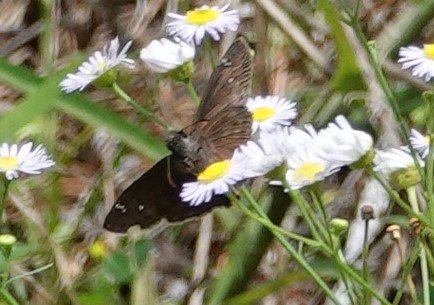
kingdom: Animalia
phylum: Arthropoda
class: Insecta
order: Lepidoptera
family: Hesperiidae
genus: Gesta
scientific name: Gesta
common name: Horace's Duskywing
